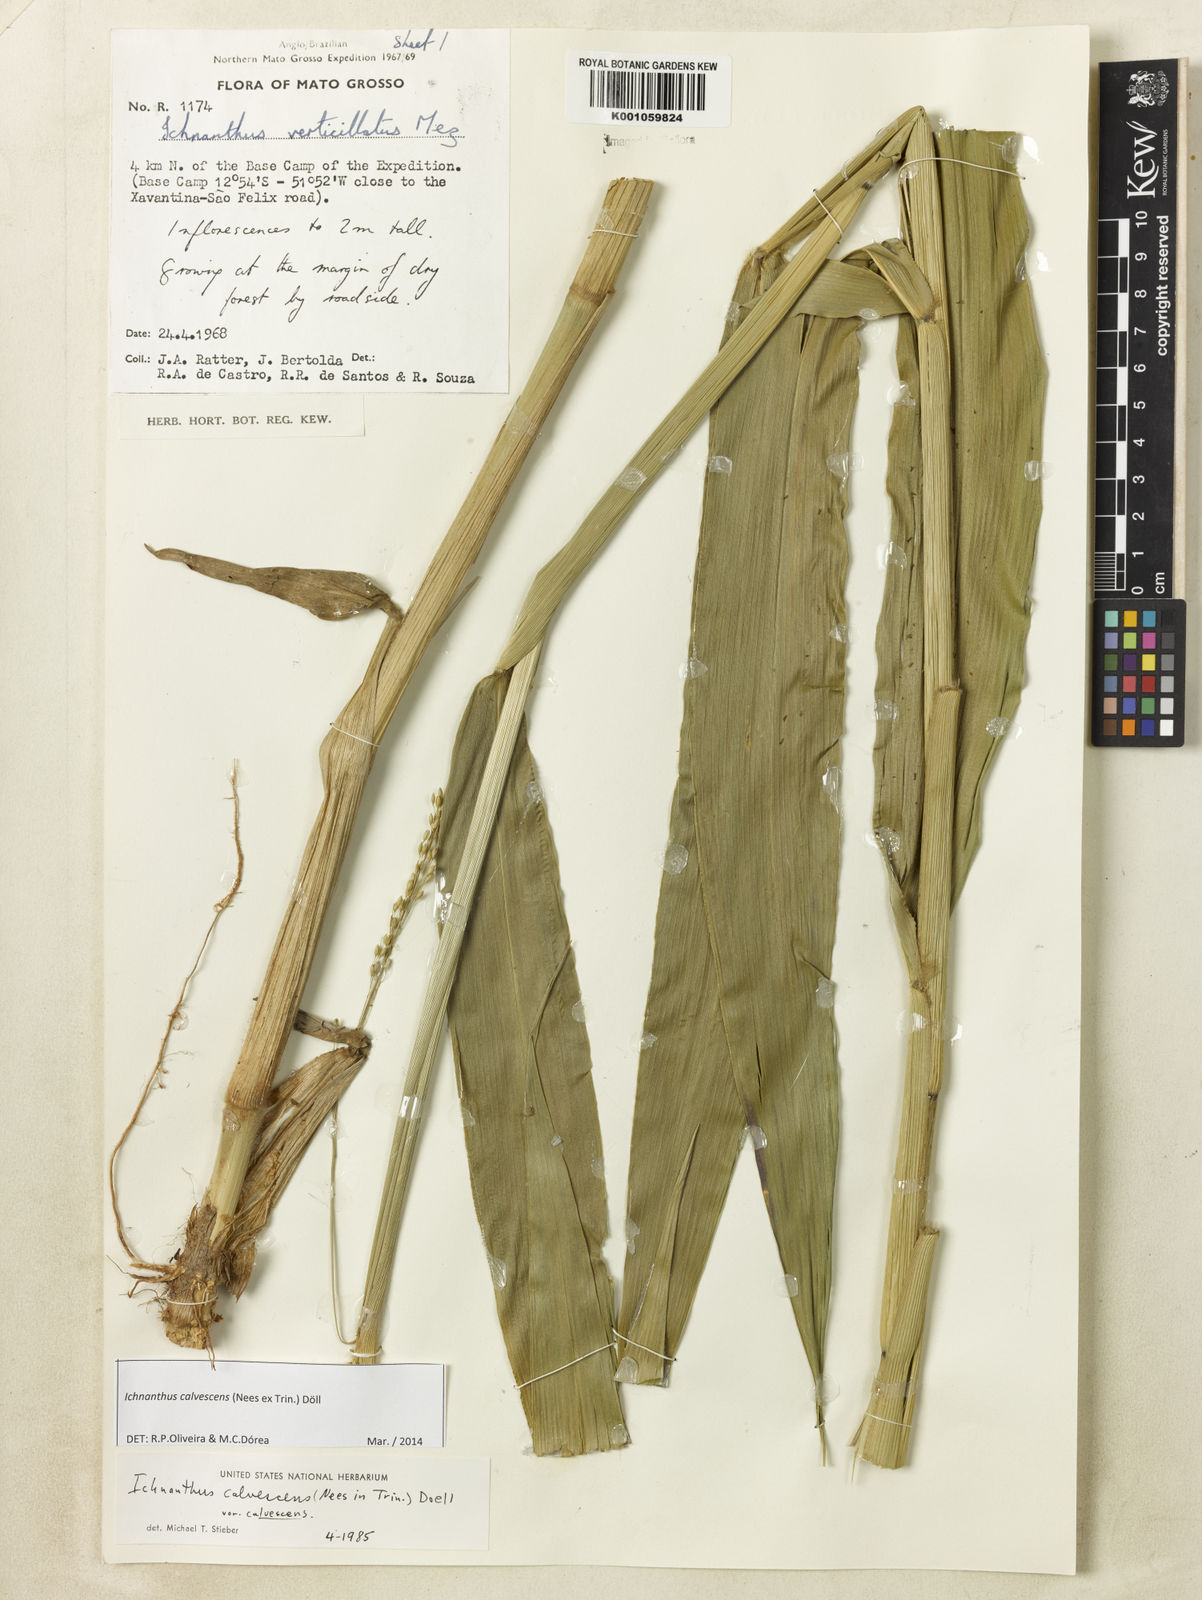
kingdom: Plantae
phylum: Tracheophyta
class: Liliopsida
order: Poales
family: Poaceae
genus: Ichnanthus
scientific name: Ichnanthus
